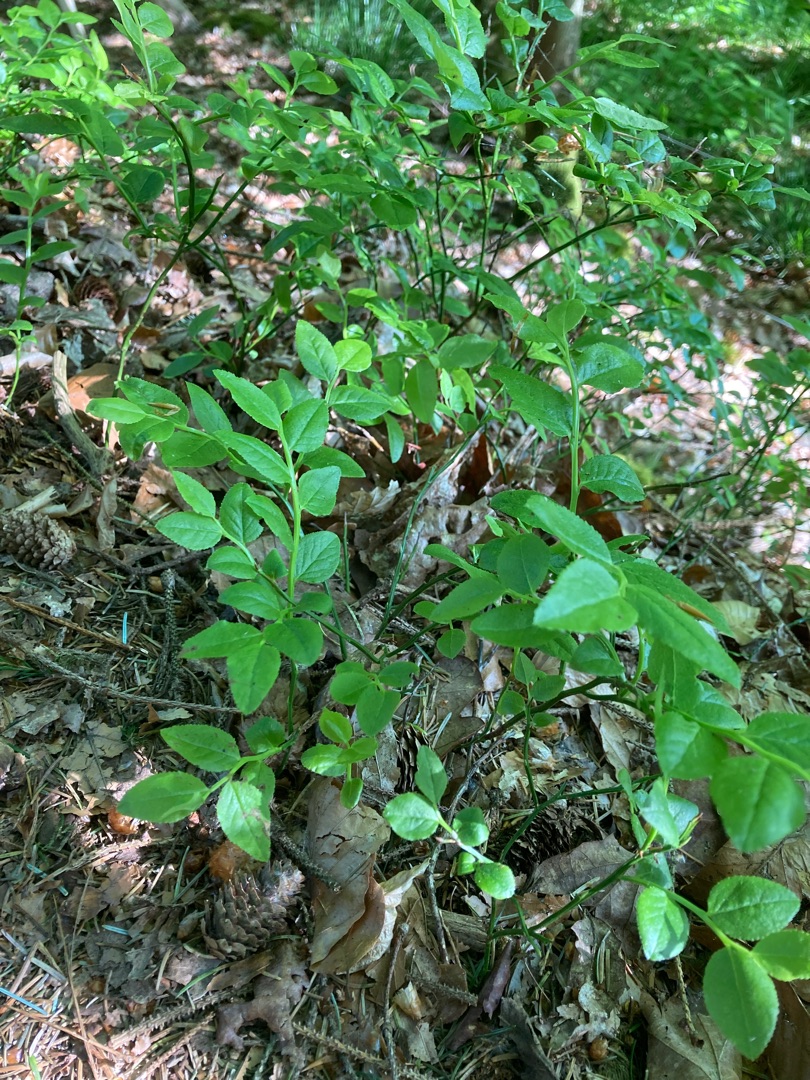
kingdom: Plantae
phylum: Tracheophyta
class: Magnoliopsida
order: Ericales
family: Ericaceae
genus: Vaccinium
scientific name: Vaccinium myrtillus
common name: Blåbær
